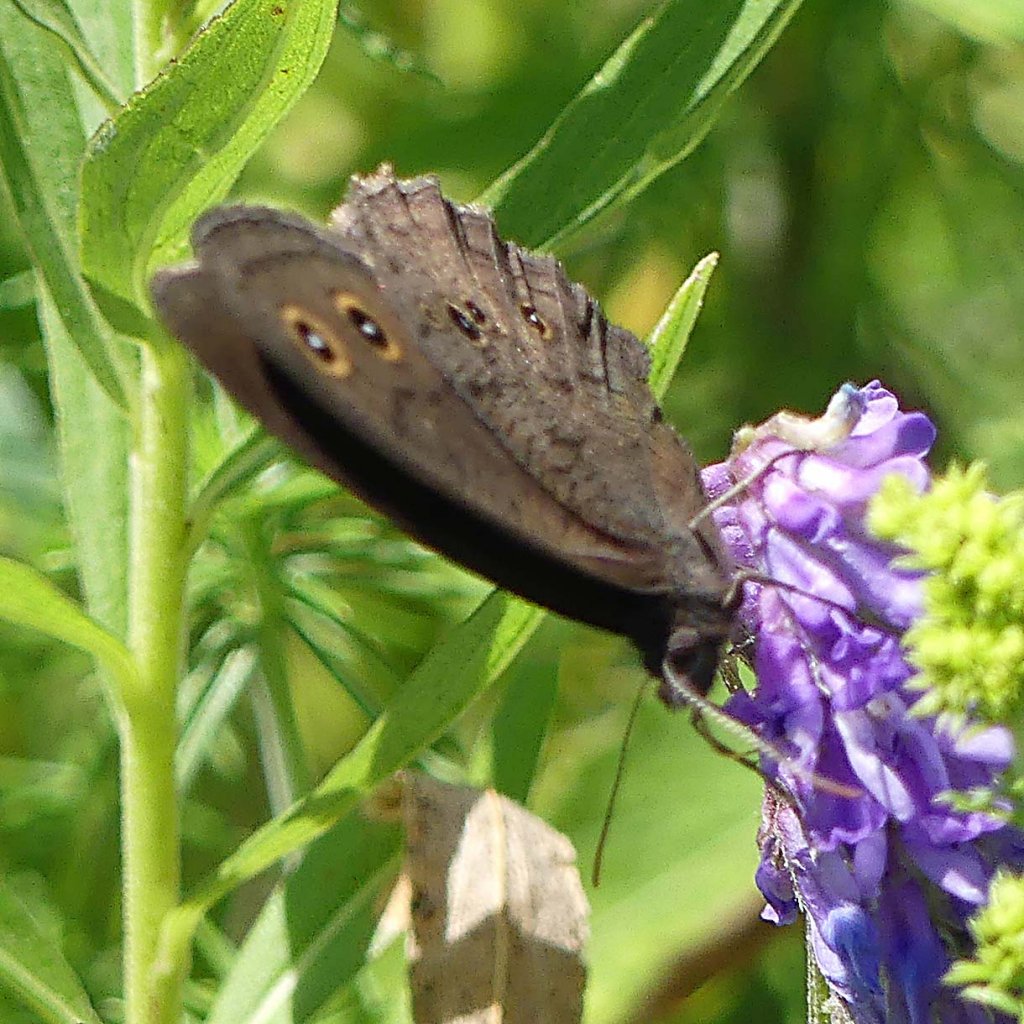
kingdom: Animalia
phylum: Arthropoda
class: Insecta
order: Lepidoptera
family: Nymphalidae
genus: Cercyonis
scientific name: Cercyonis pegala
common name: Common Wood-Nymph
